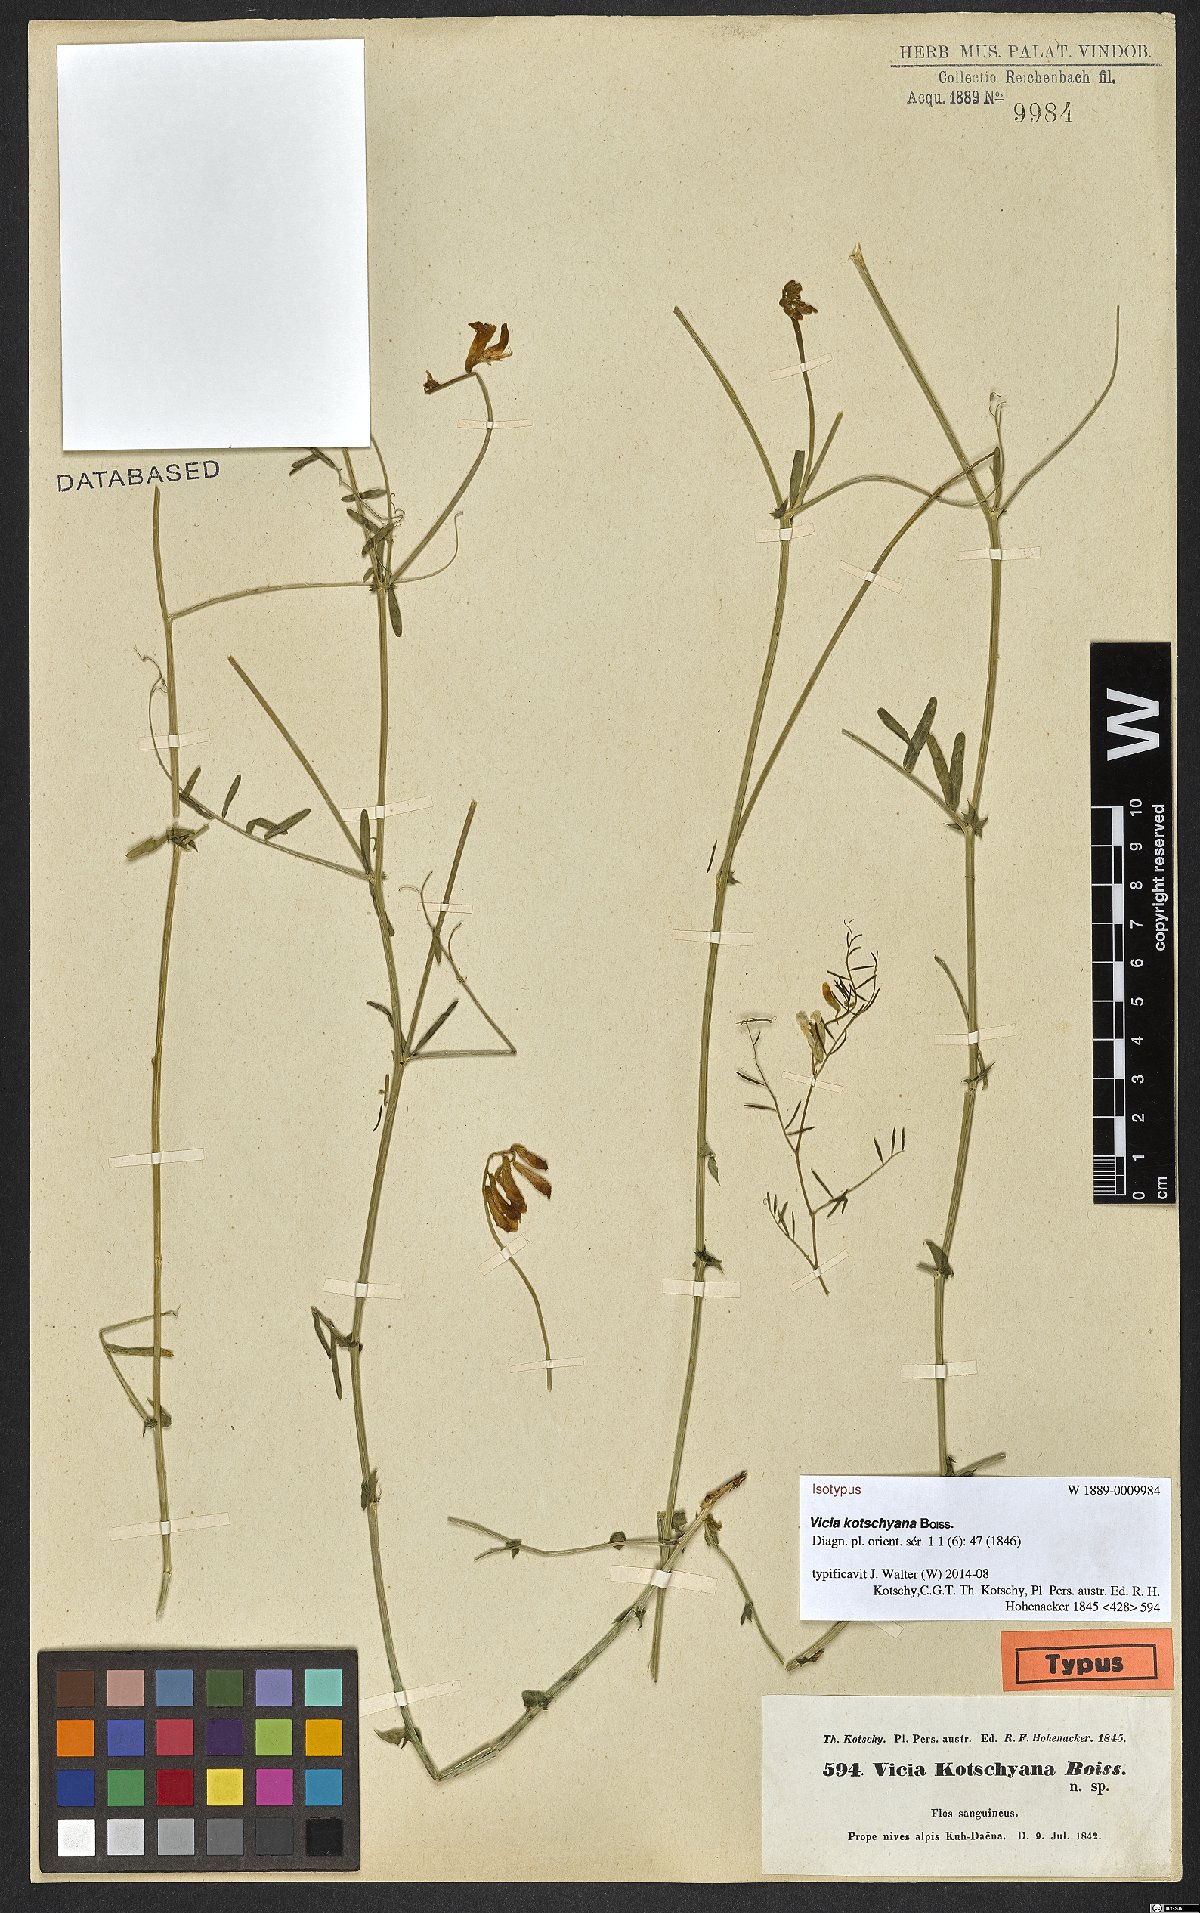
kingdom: Plantae
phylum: Tracheophyta
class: Magnoliopsida
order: Fabales
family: Fabaceae
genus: Vicia
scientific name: Vicia kotschyana
